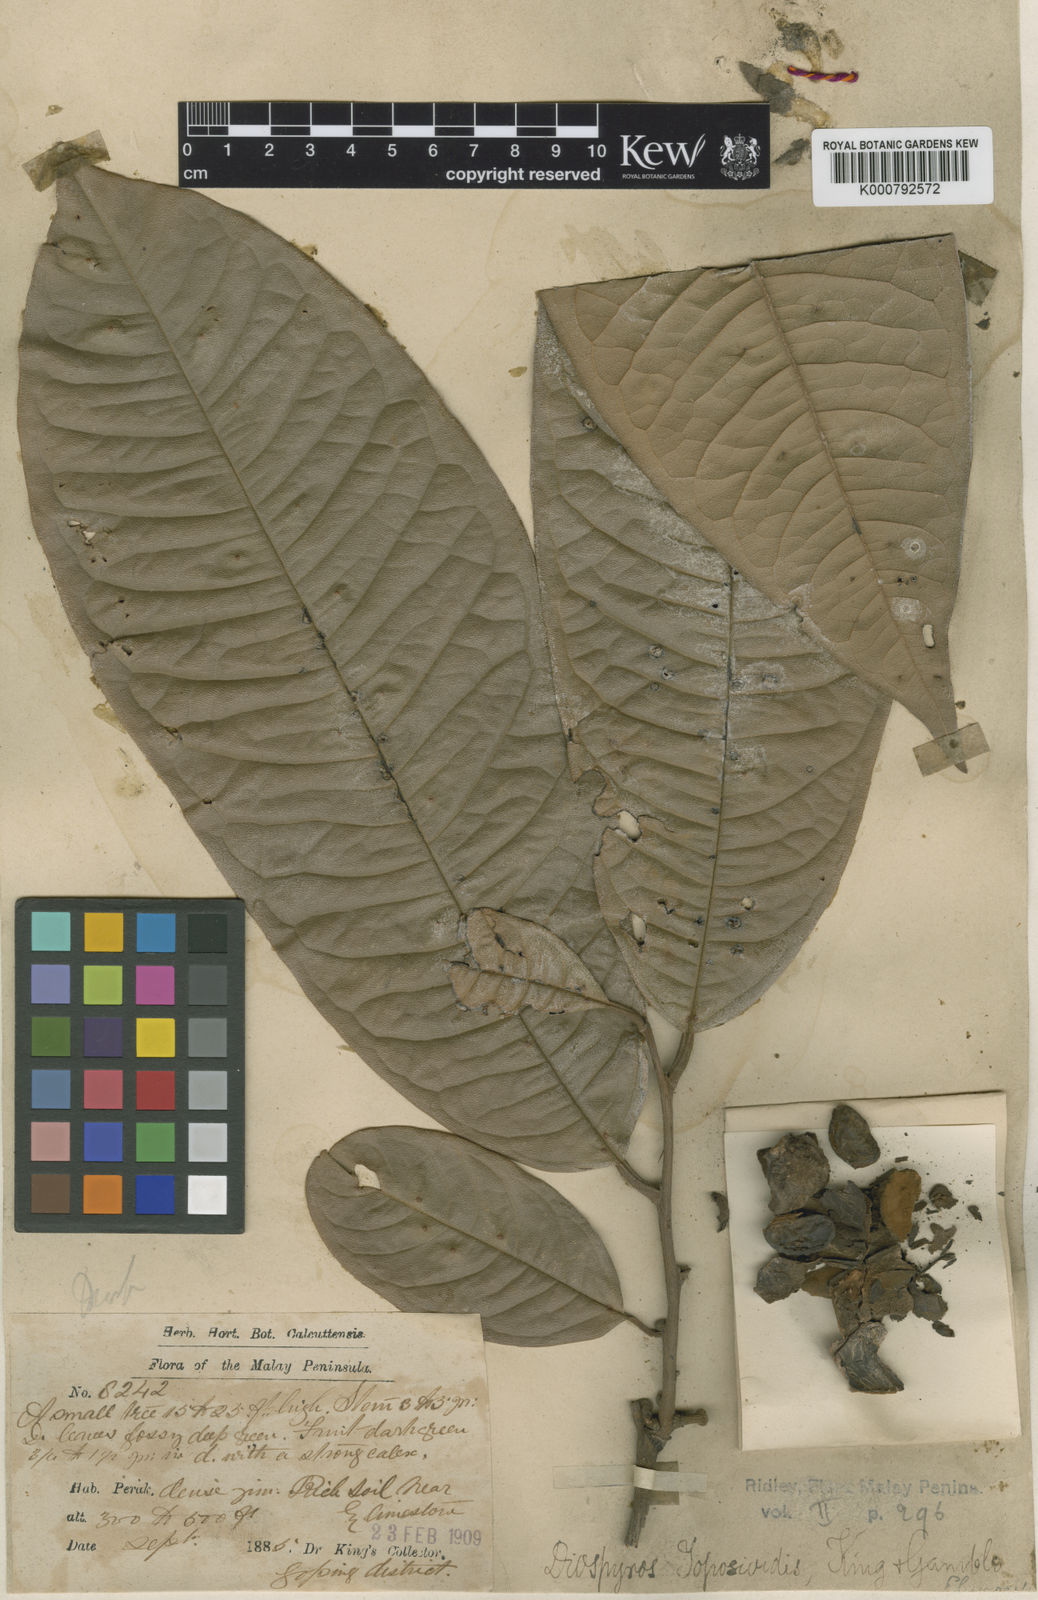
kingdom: Plantae
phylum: Tracheophyta
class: Magnoliopsida
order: Ericales
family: Ebenaceae
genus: Diospyros
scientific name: Diospyros toposia
